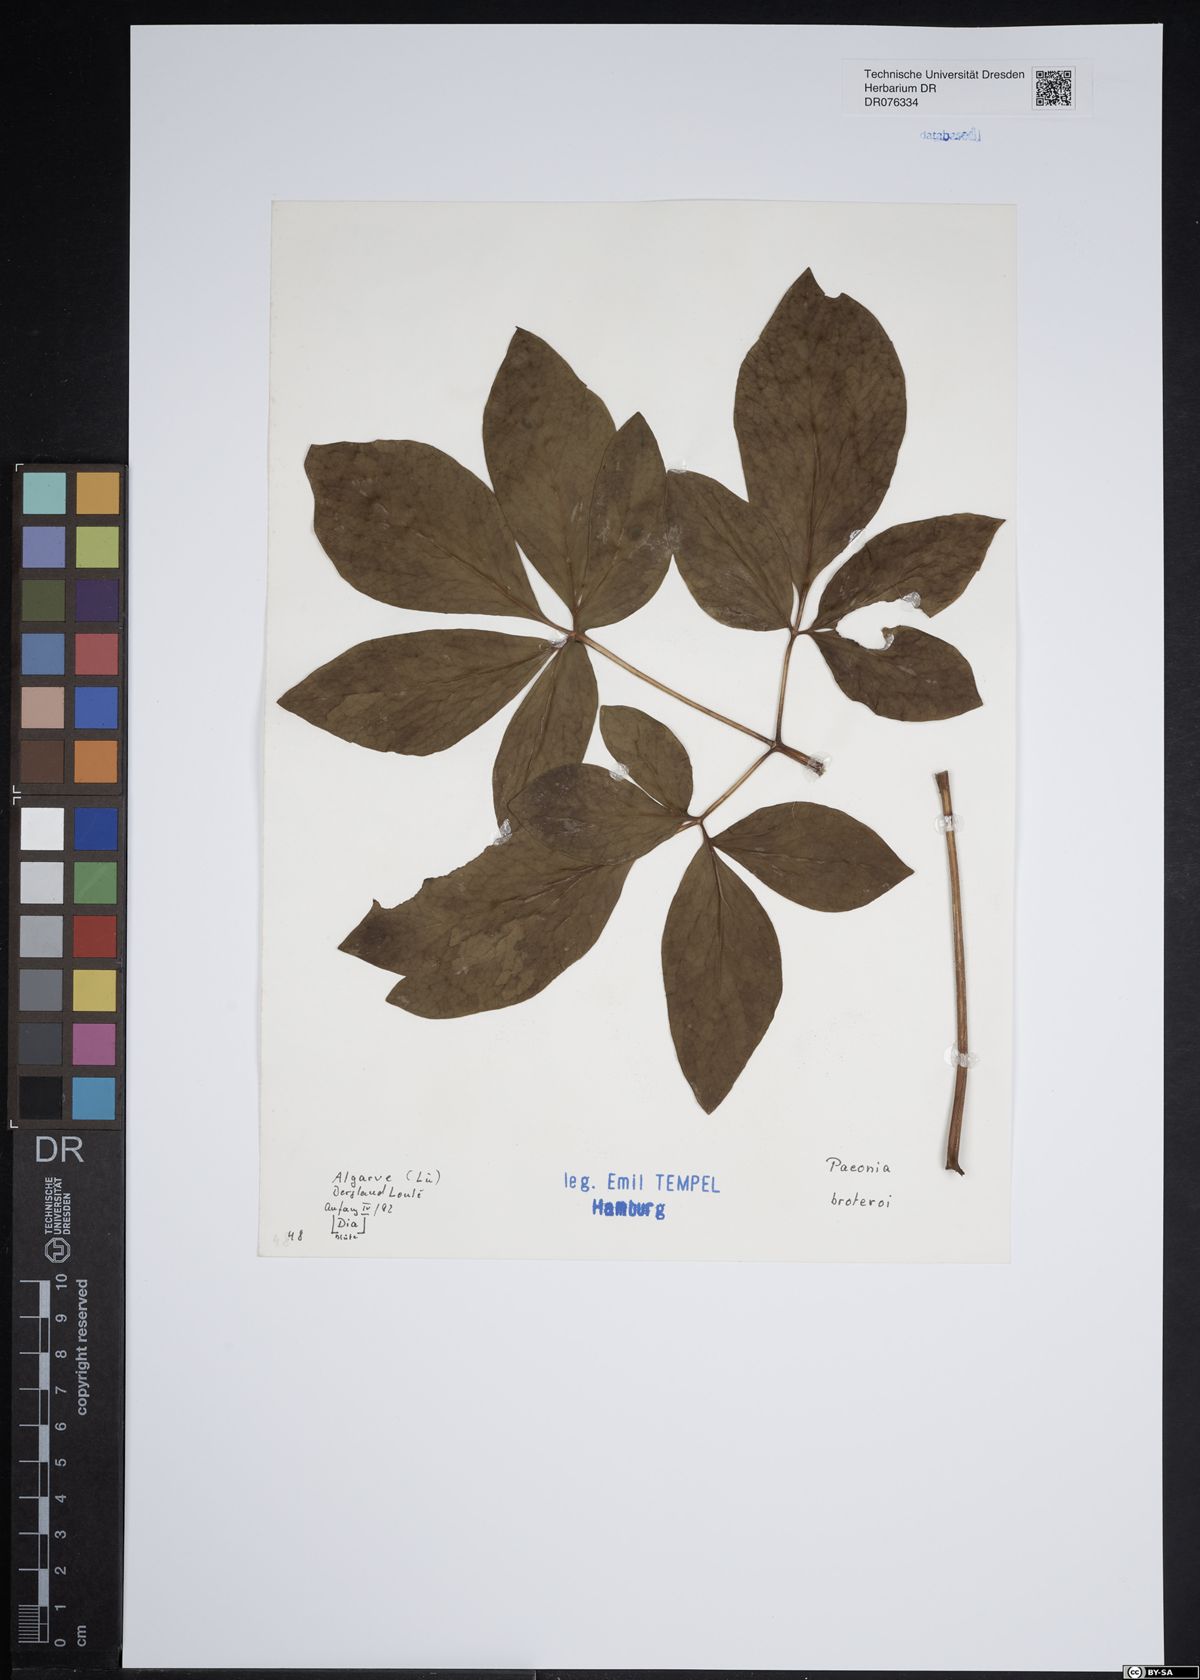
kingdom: Plantae
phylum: Tracheophyta
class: Magnoliopsida
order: Saxifragales
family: Paeoniaceae
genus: Paeonia
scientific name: Paeonia broteroi
